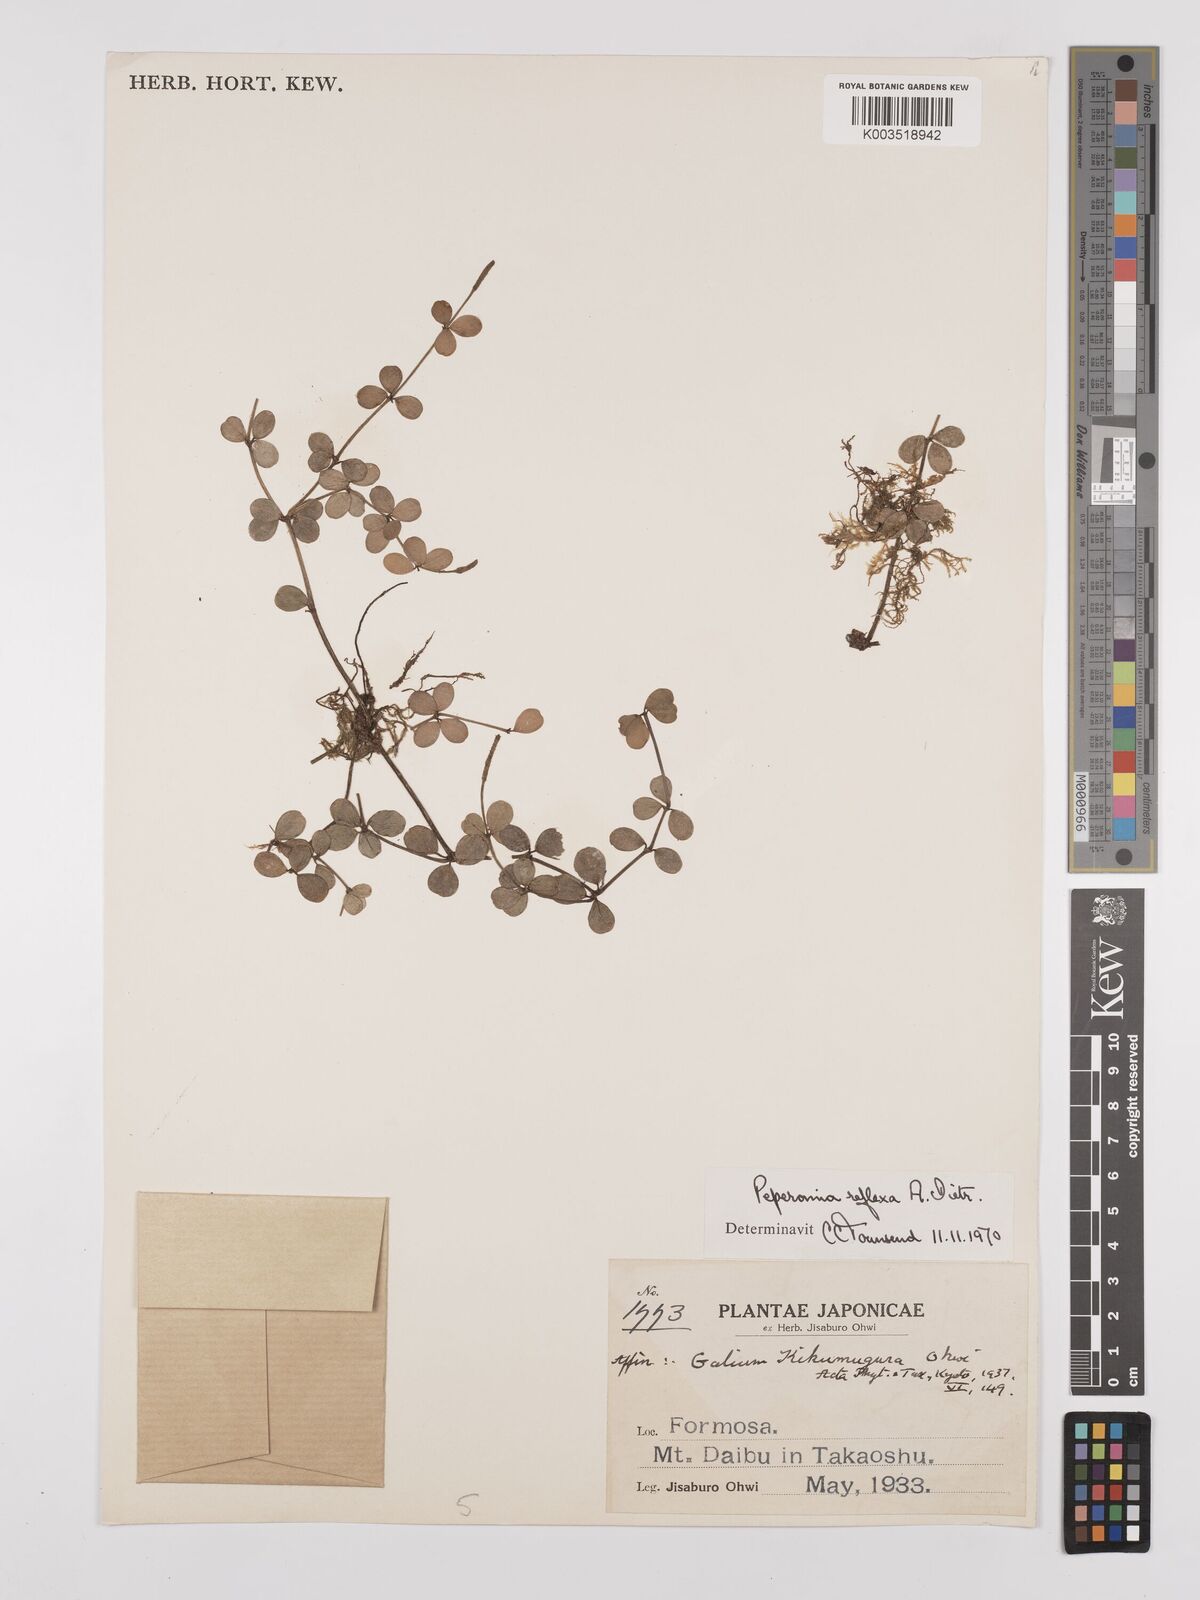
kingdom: Plantae
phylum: Tracheophyta
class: Magnoliopsida
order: Piperales
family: Piperaceae
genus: Peperomia
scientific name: Peperomia tetraphylla
